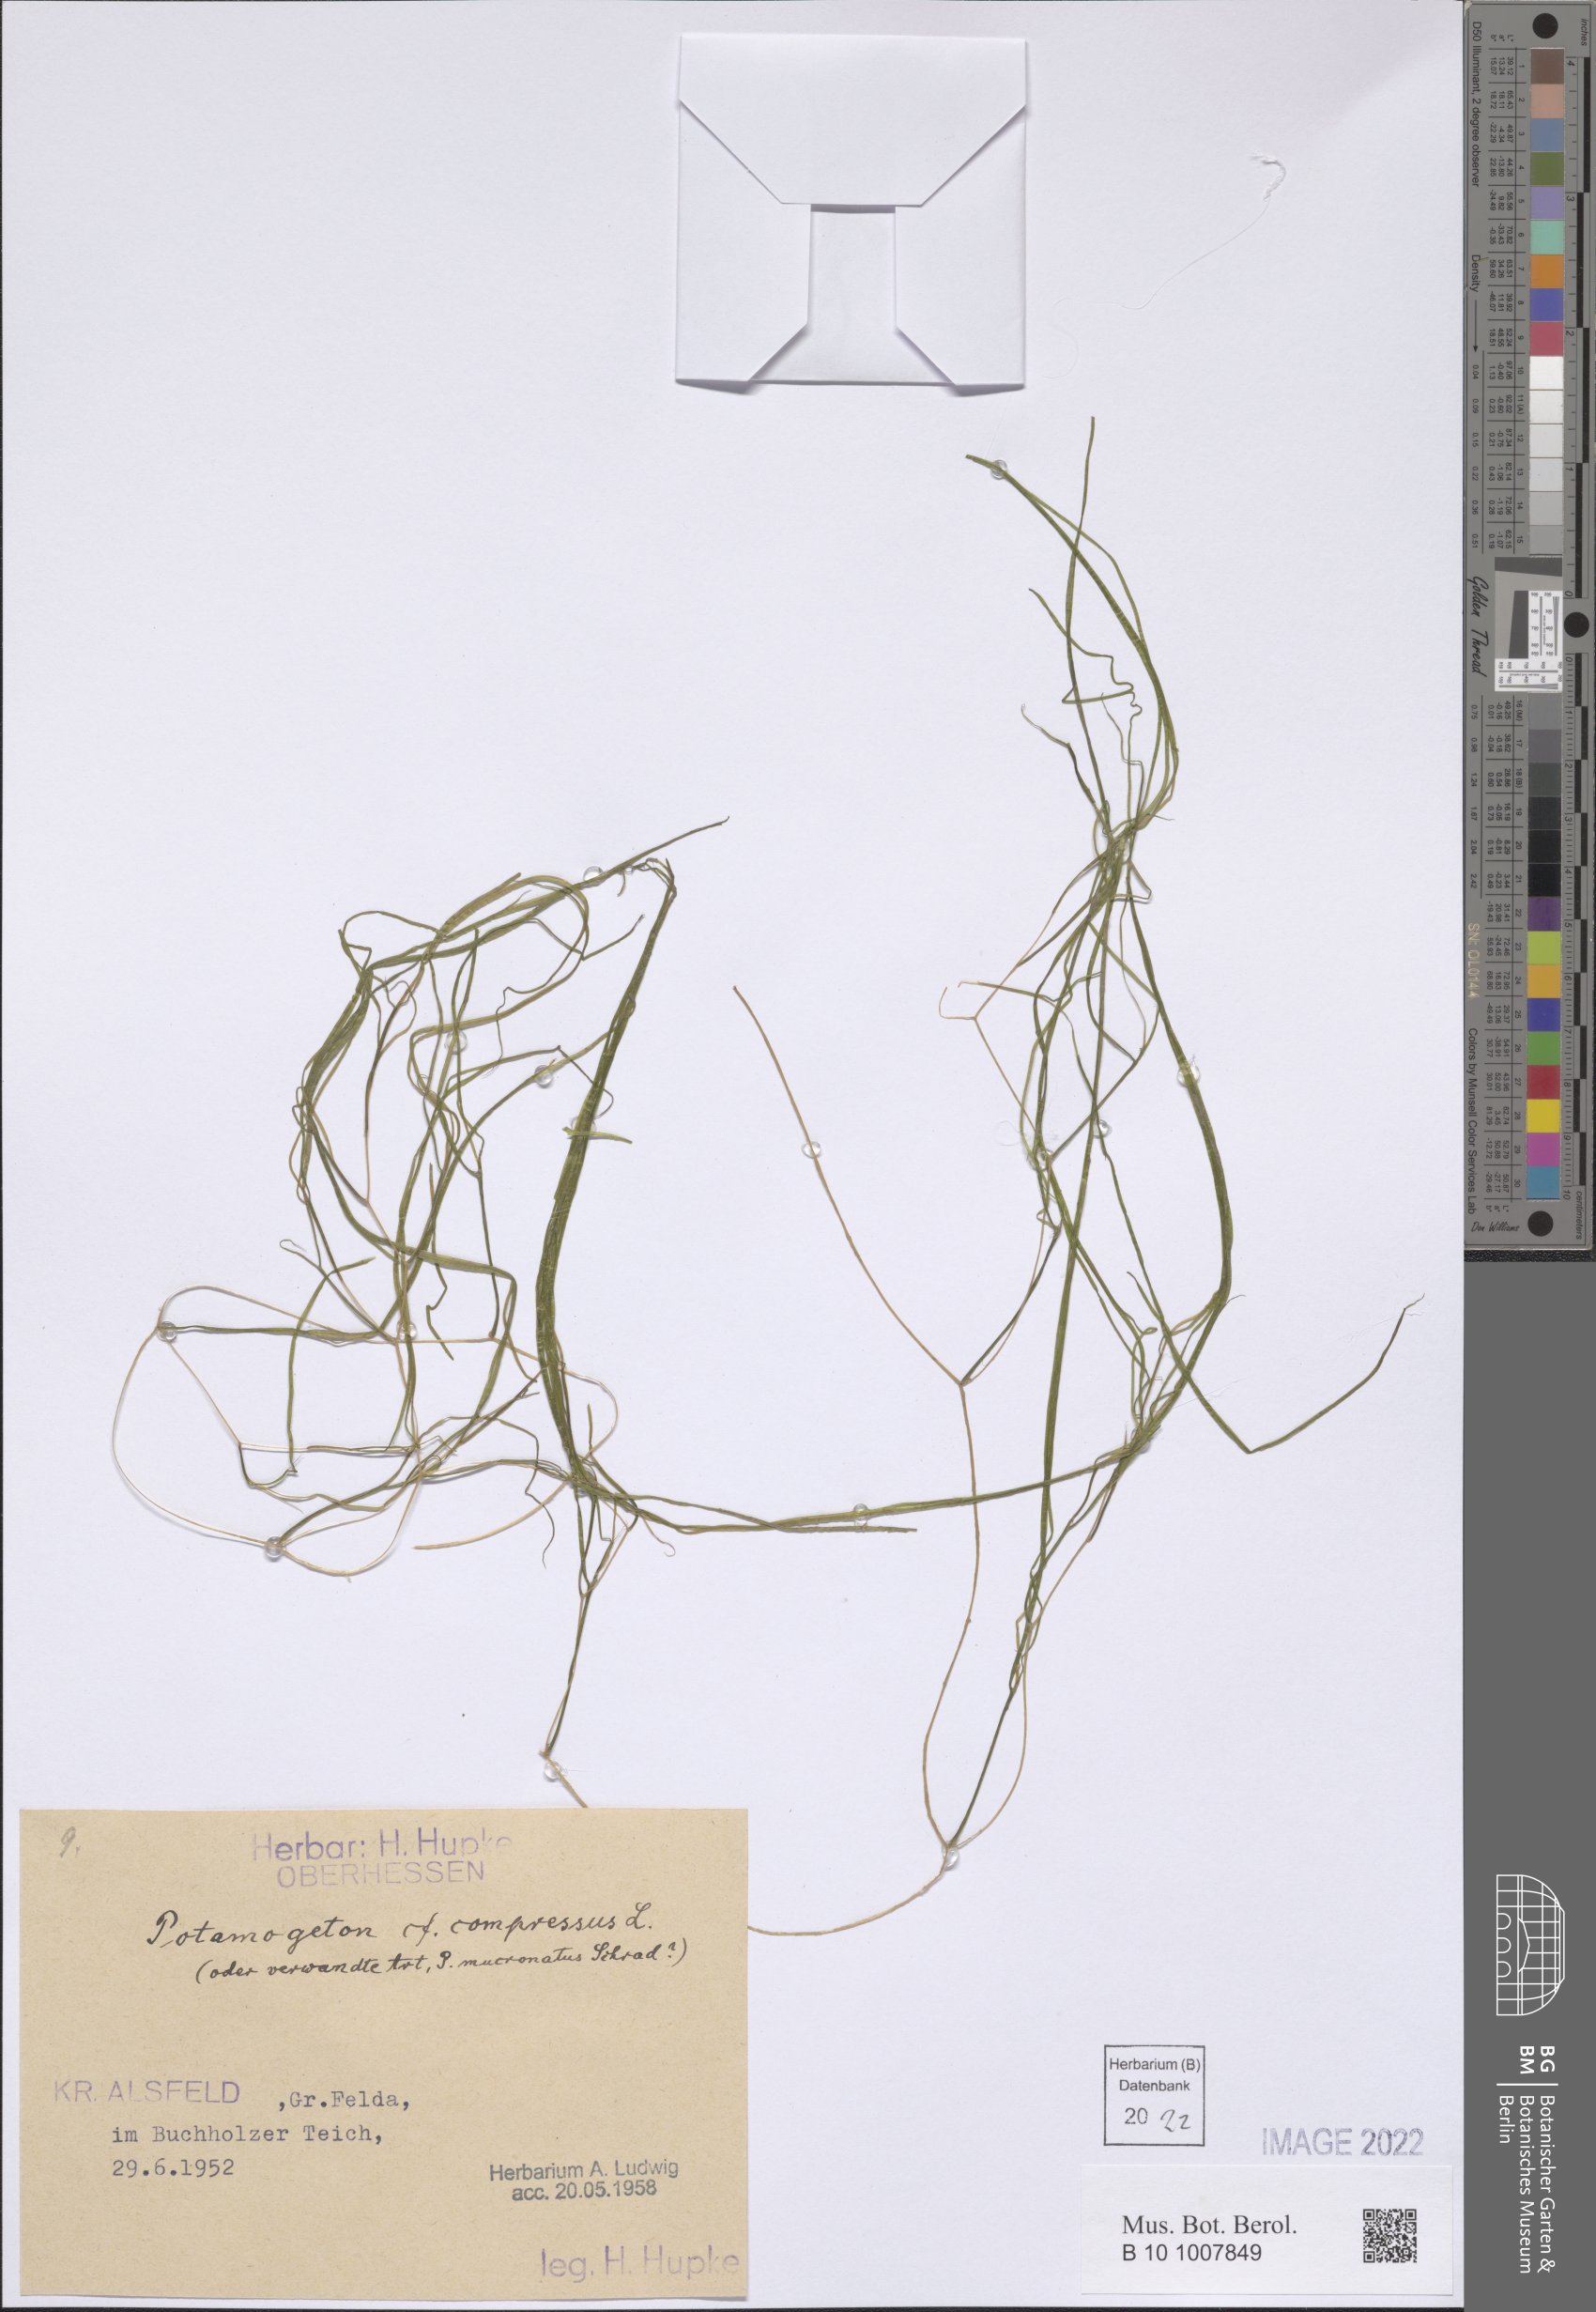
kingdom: Plantae
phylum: Tracheophyta
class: Liliopsida
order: Alismatales
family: Potamogetonaceae
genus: Potamogeton
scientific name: Potamogeton compressus
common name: Grass-wrack pondweed
